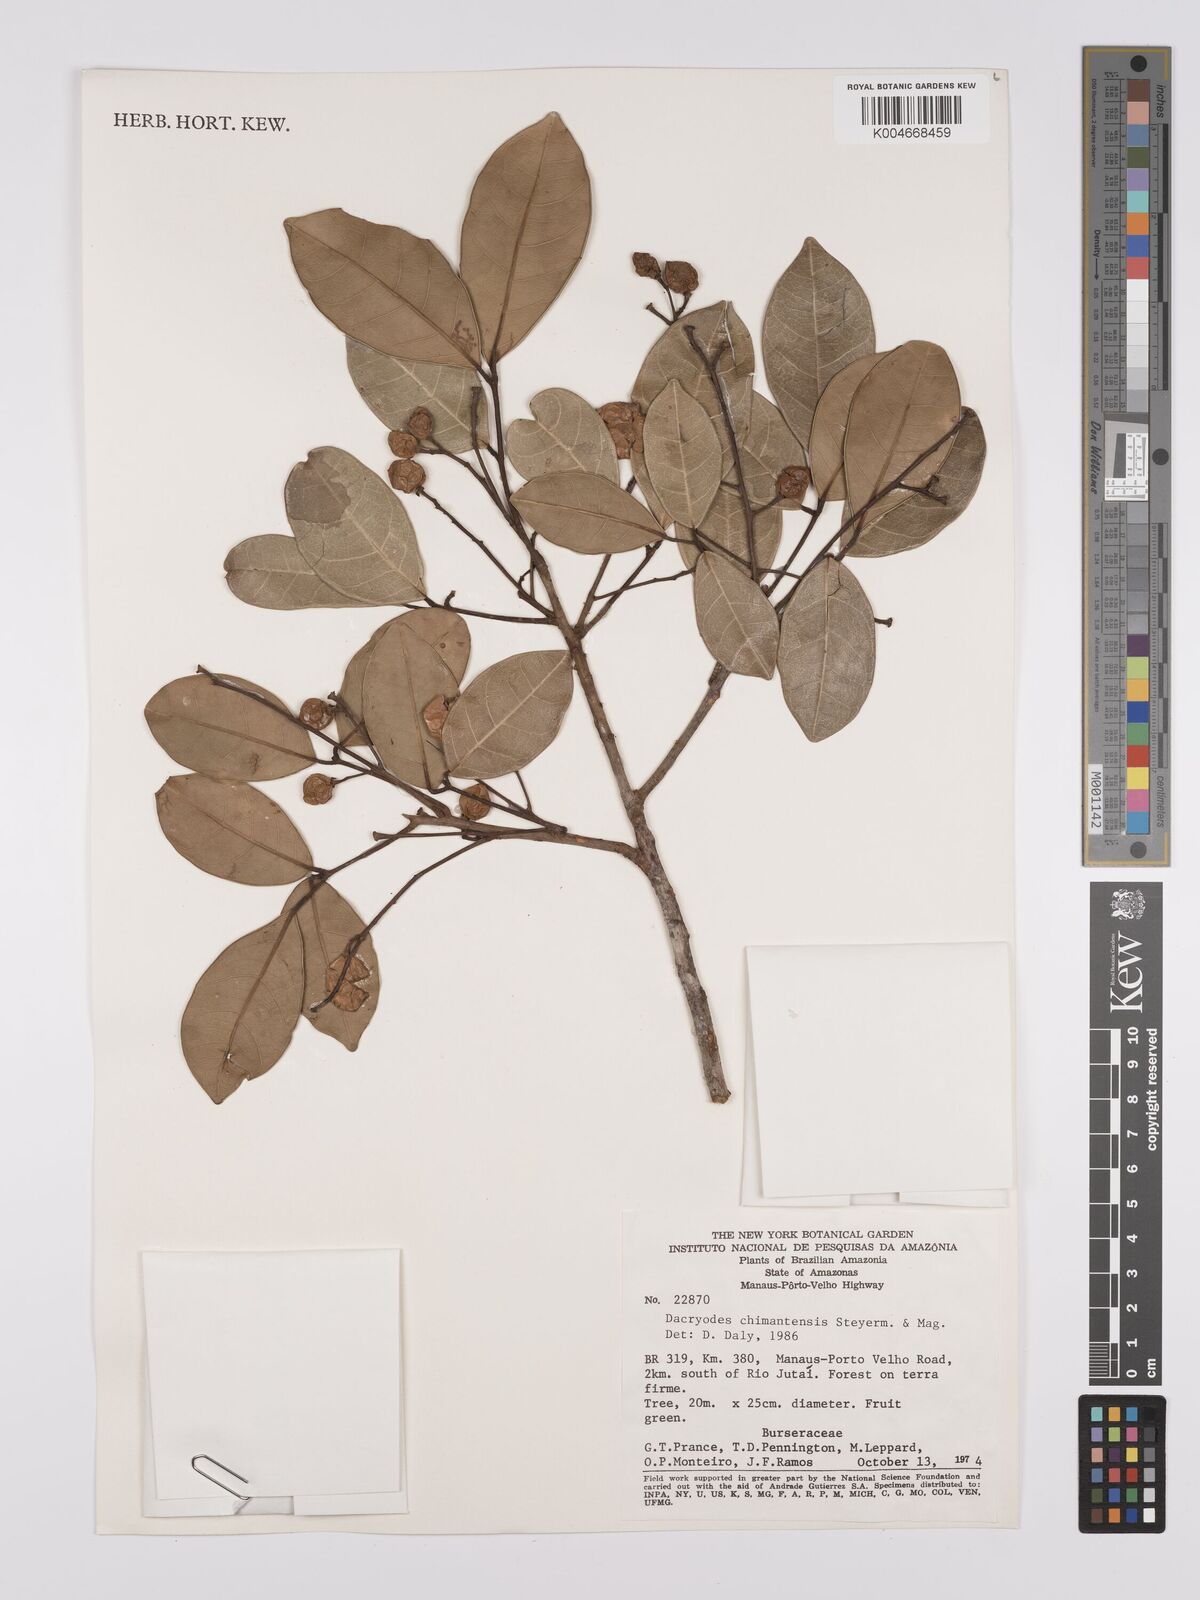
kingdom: Plantae
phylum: Tracheophyta
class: Magnoliopsida
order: Sapindales
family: Burseraceae
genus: Dacryodes
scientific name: Dacryodes chimantensis
